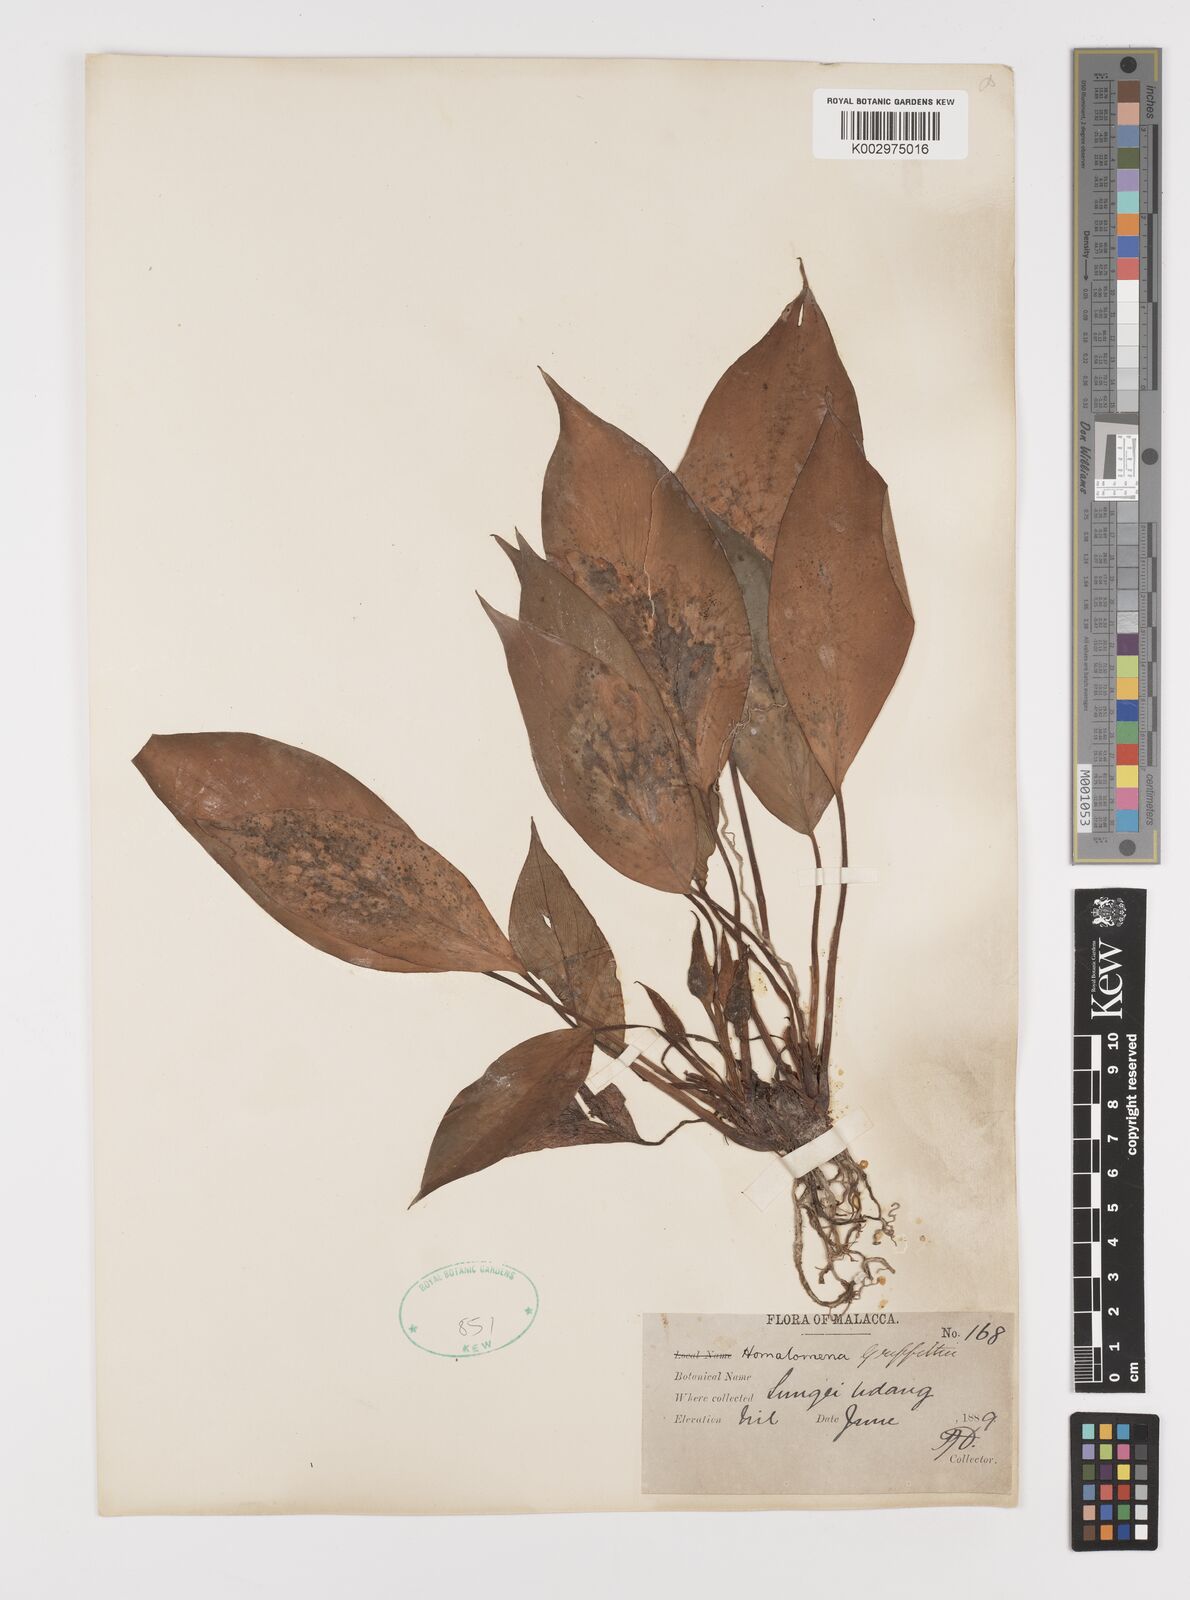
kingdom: Plantae
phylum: Tracheophyta
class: Liliopsida
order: Alismatales
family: Araceae
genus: Homalomena
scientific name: Homalomena griffithii
